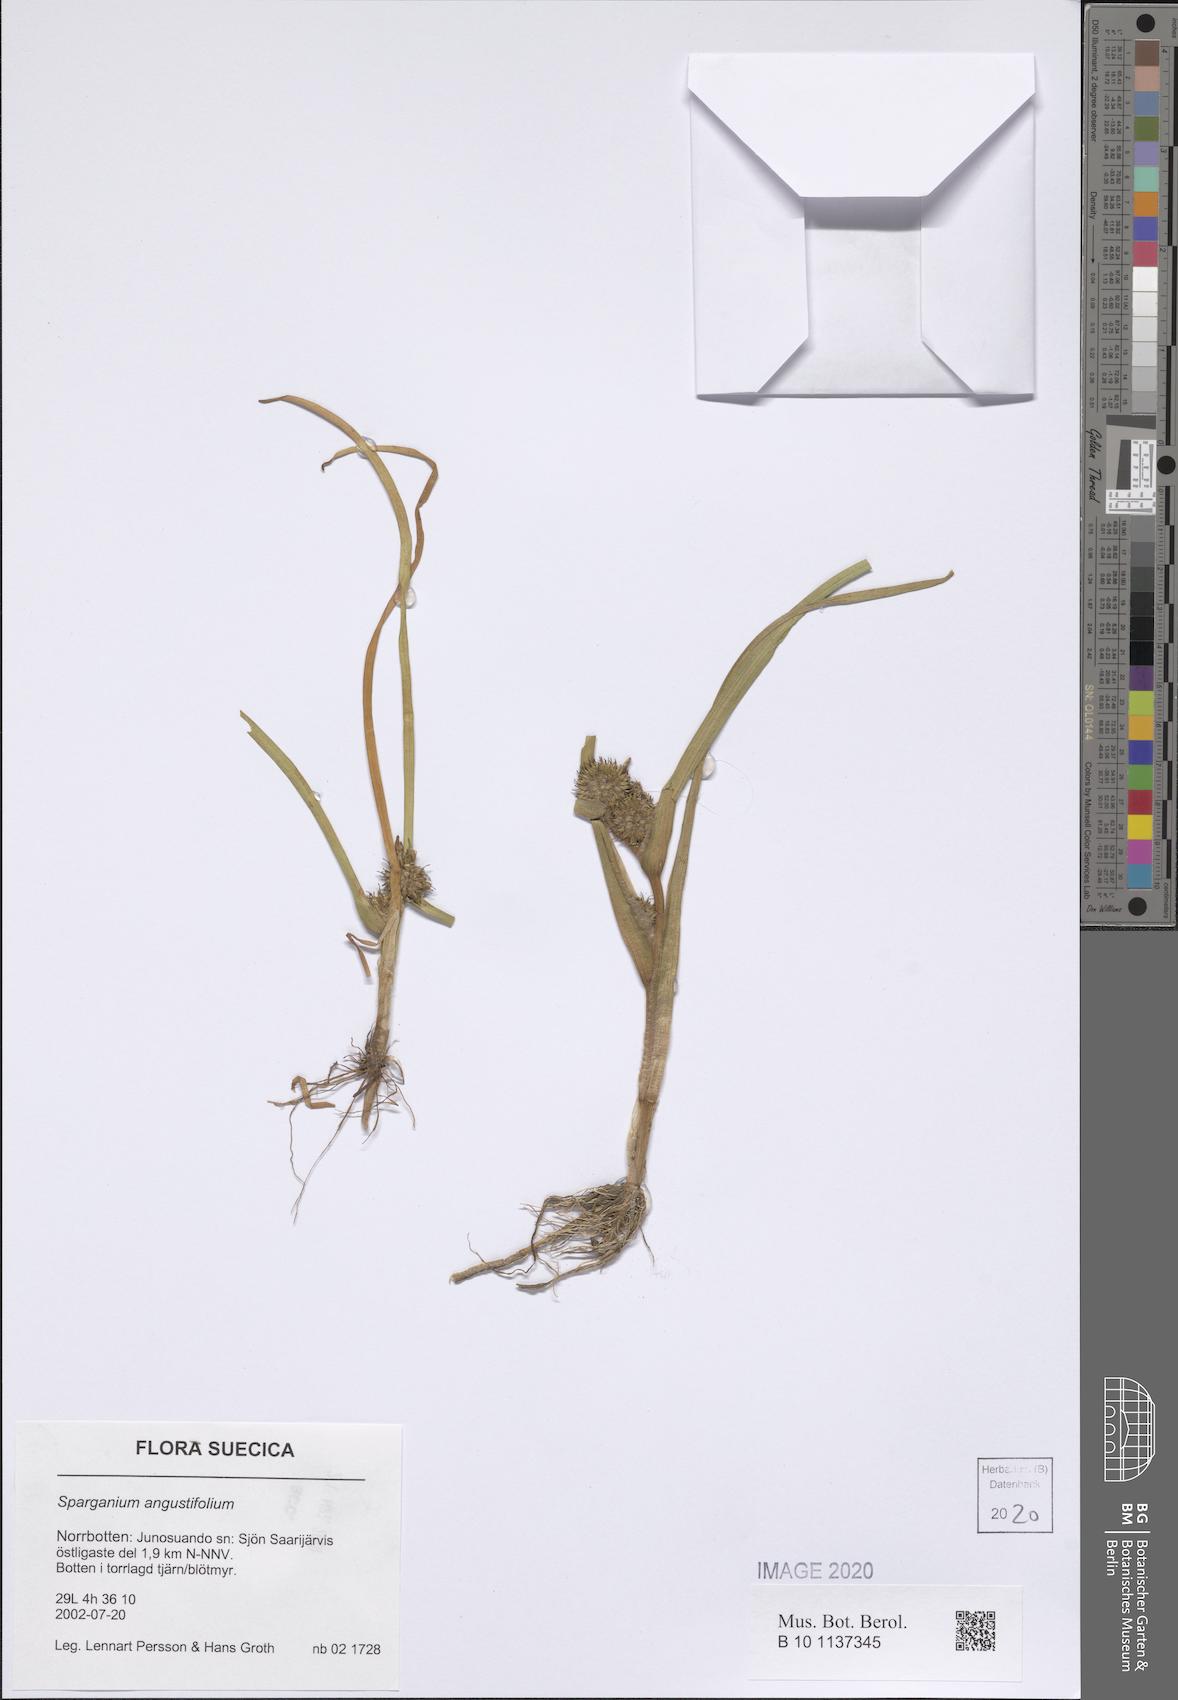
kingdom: Plantae
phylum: Tracheophyta
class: Liliopsida
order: Poales
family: Typhaceae
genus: Sparganium
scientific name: Sparganium angustifolium
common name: Floating bur-reed
